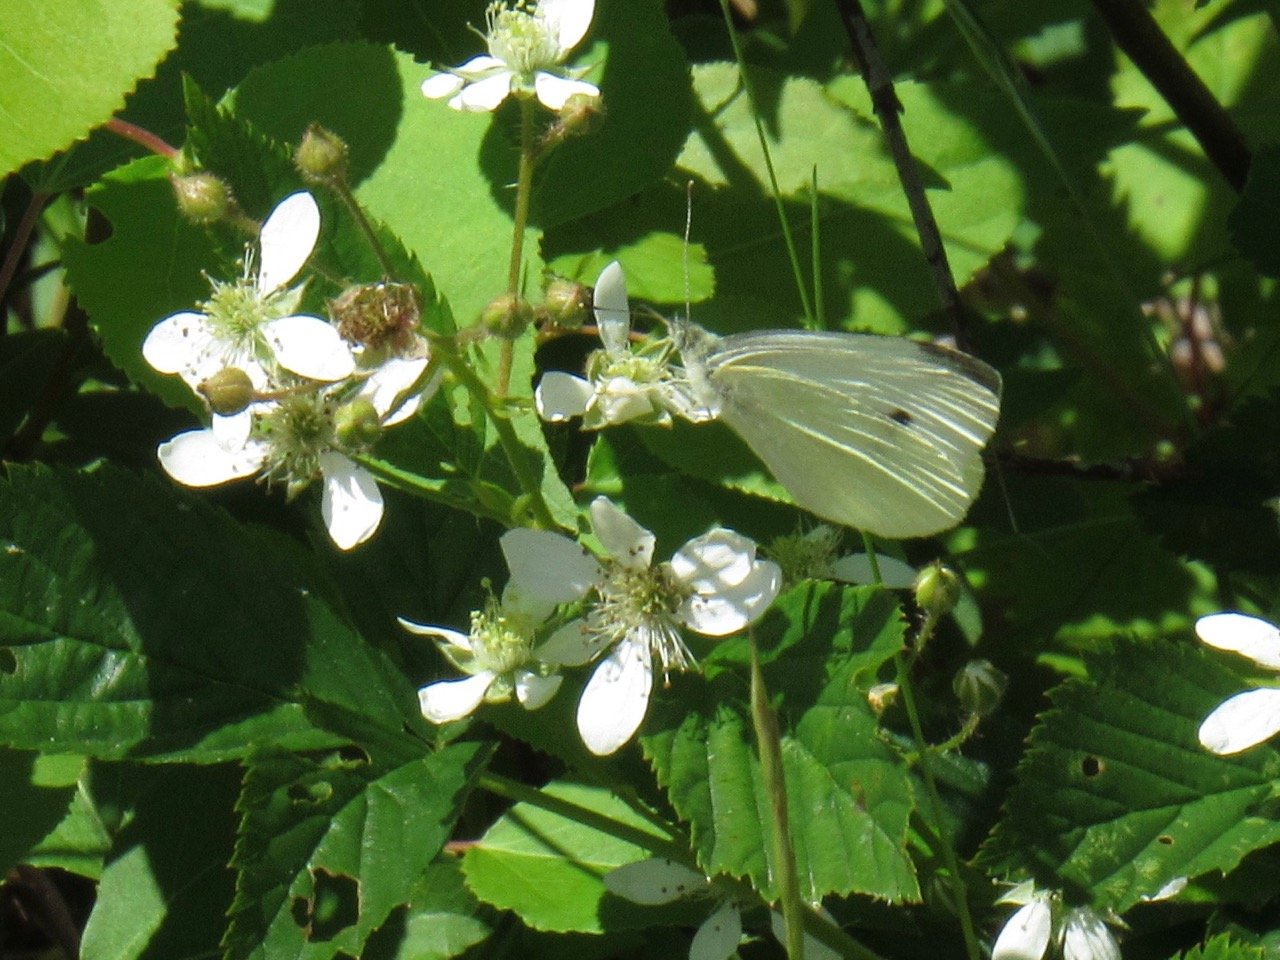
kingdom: Animalia
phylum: Arthropoda
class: Insecta
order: Lepidoptera
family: Pieridae
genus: Pieris
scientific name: Pieris rapae
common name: Cabbage White
